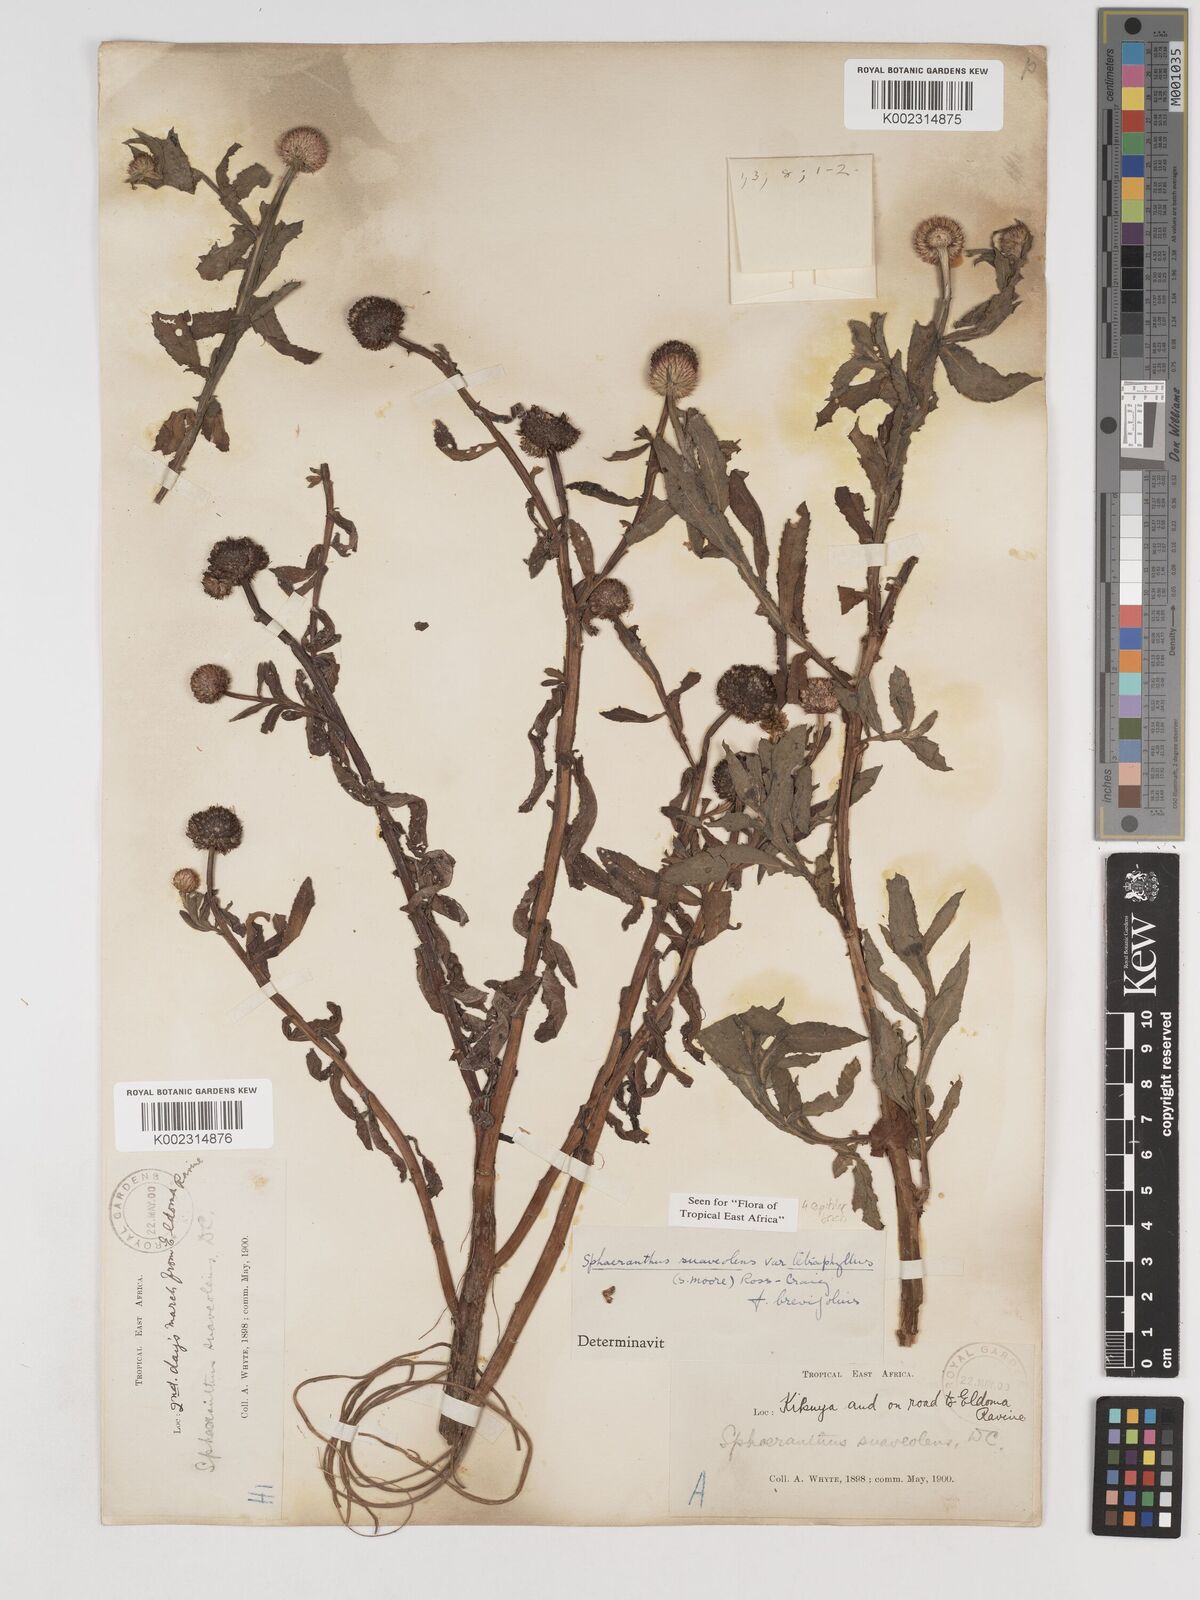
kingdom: Plantae
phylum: Tracheophyta
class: Magnoliopsida
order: Asterales
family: Asteraceae
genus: Sphaeranthus
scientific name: Sphaeranthus suaveolens
